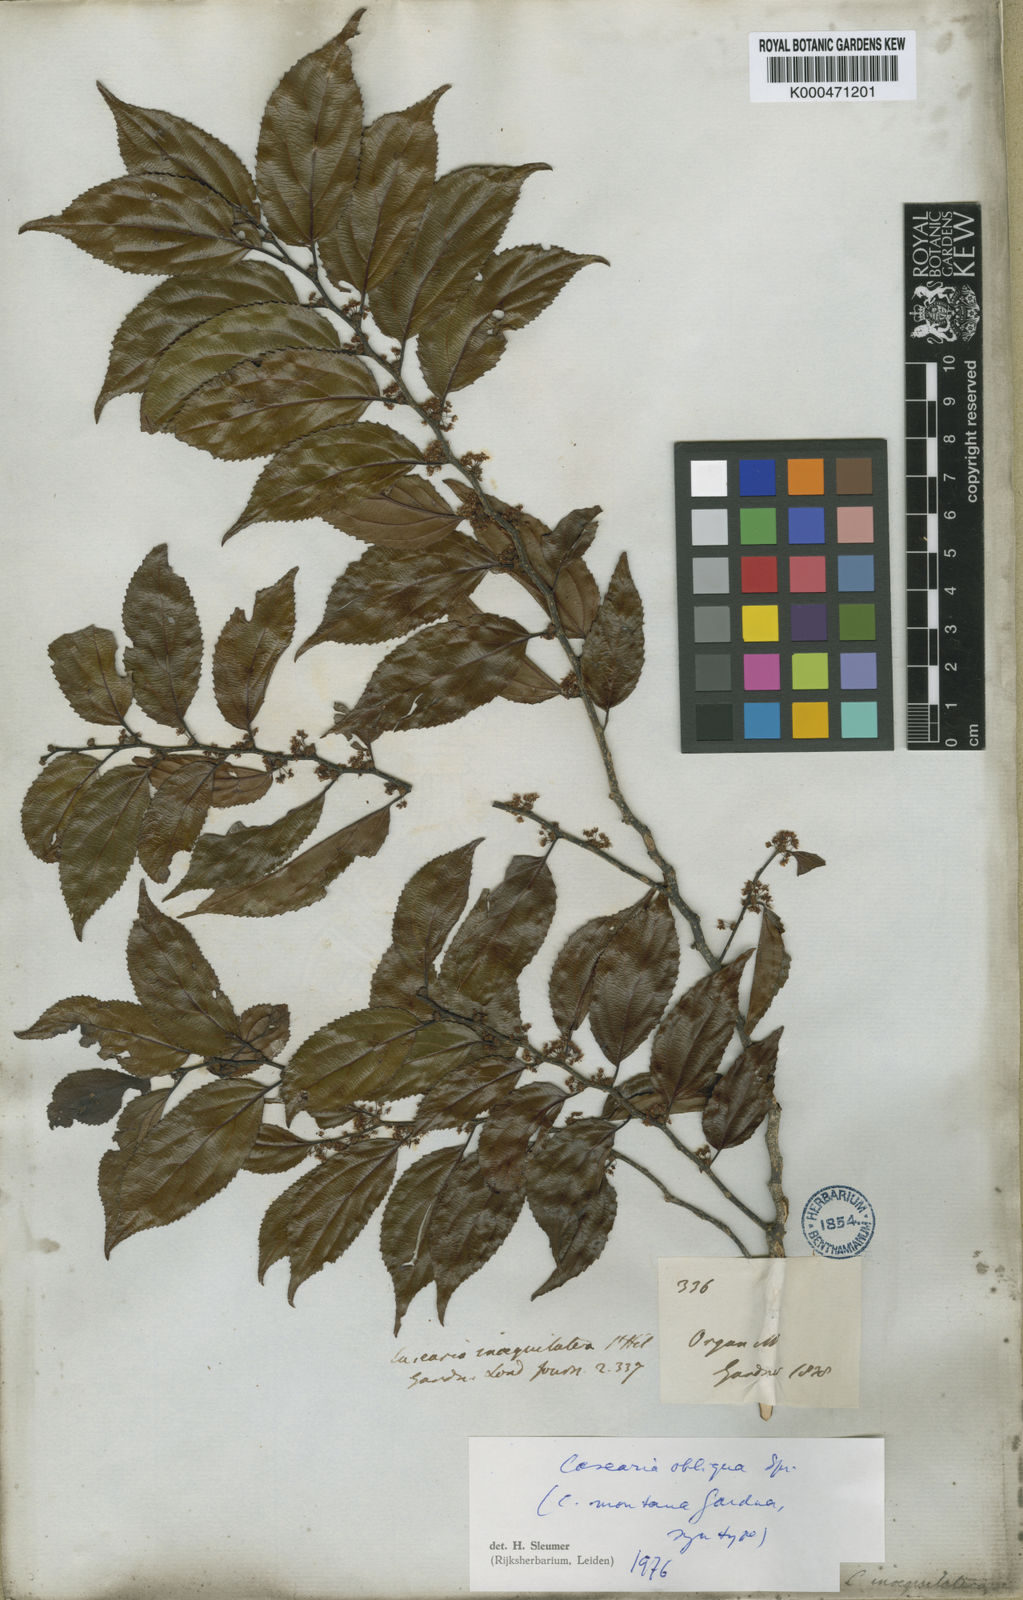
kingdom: Plantae
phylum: Tracheophyta
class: Magnoliopsida
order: Malpighiales
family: Salicaceae
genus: Casearia
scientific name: Casearia obliqua
